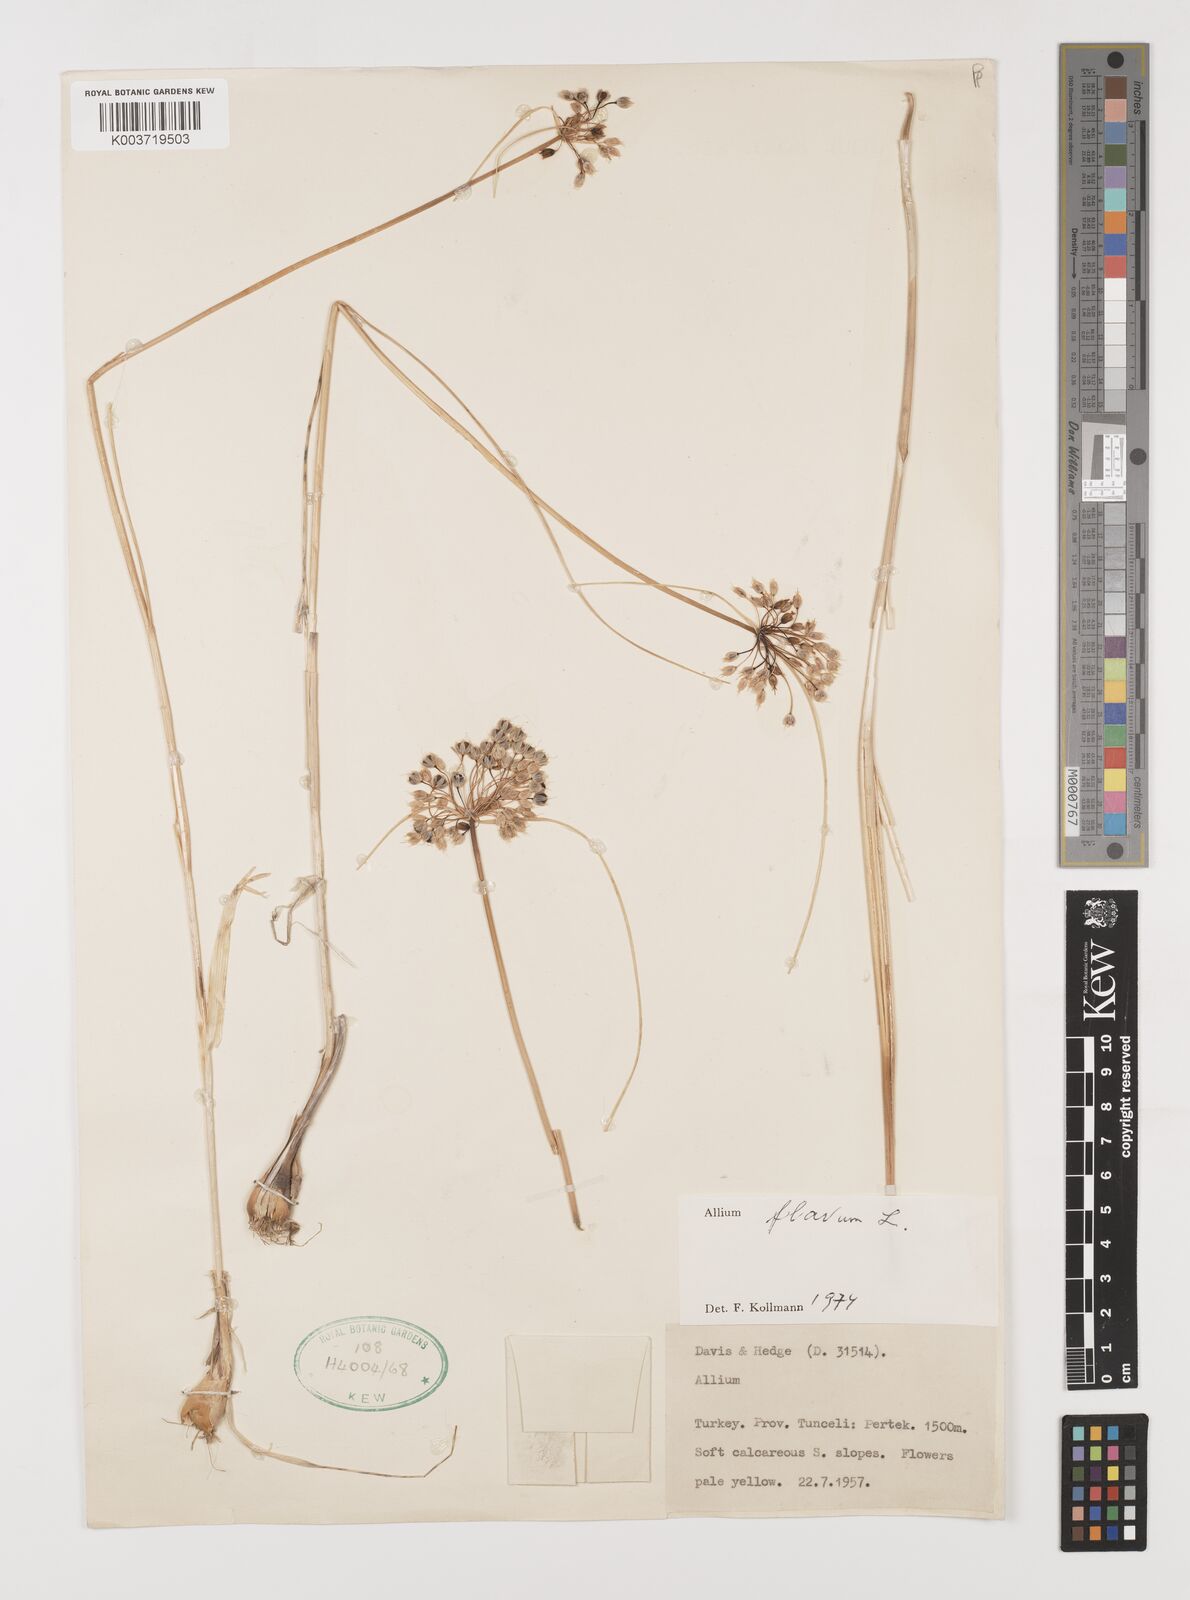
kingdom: Plantae
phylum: Tracheophyta
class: Liliopsida
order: Asparagales
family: Amaryllidaceae
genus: Allium
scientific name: Allium flavum
